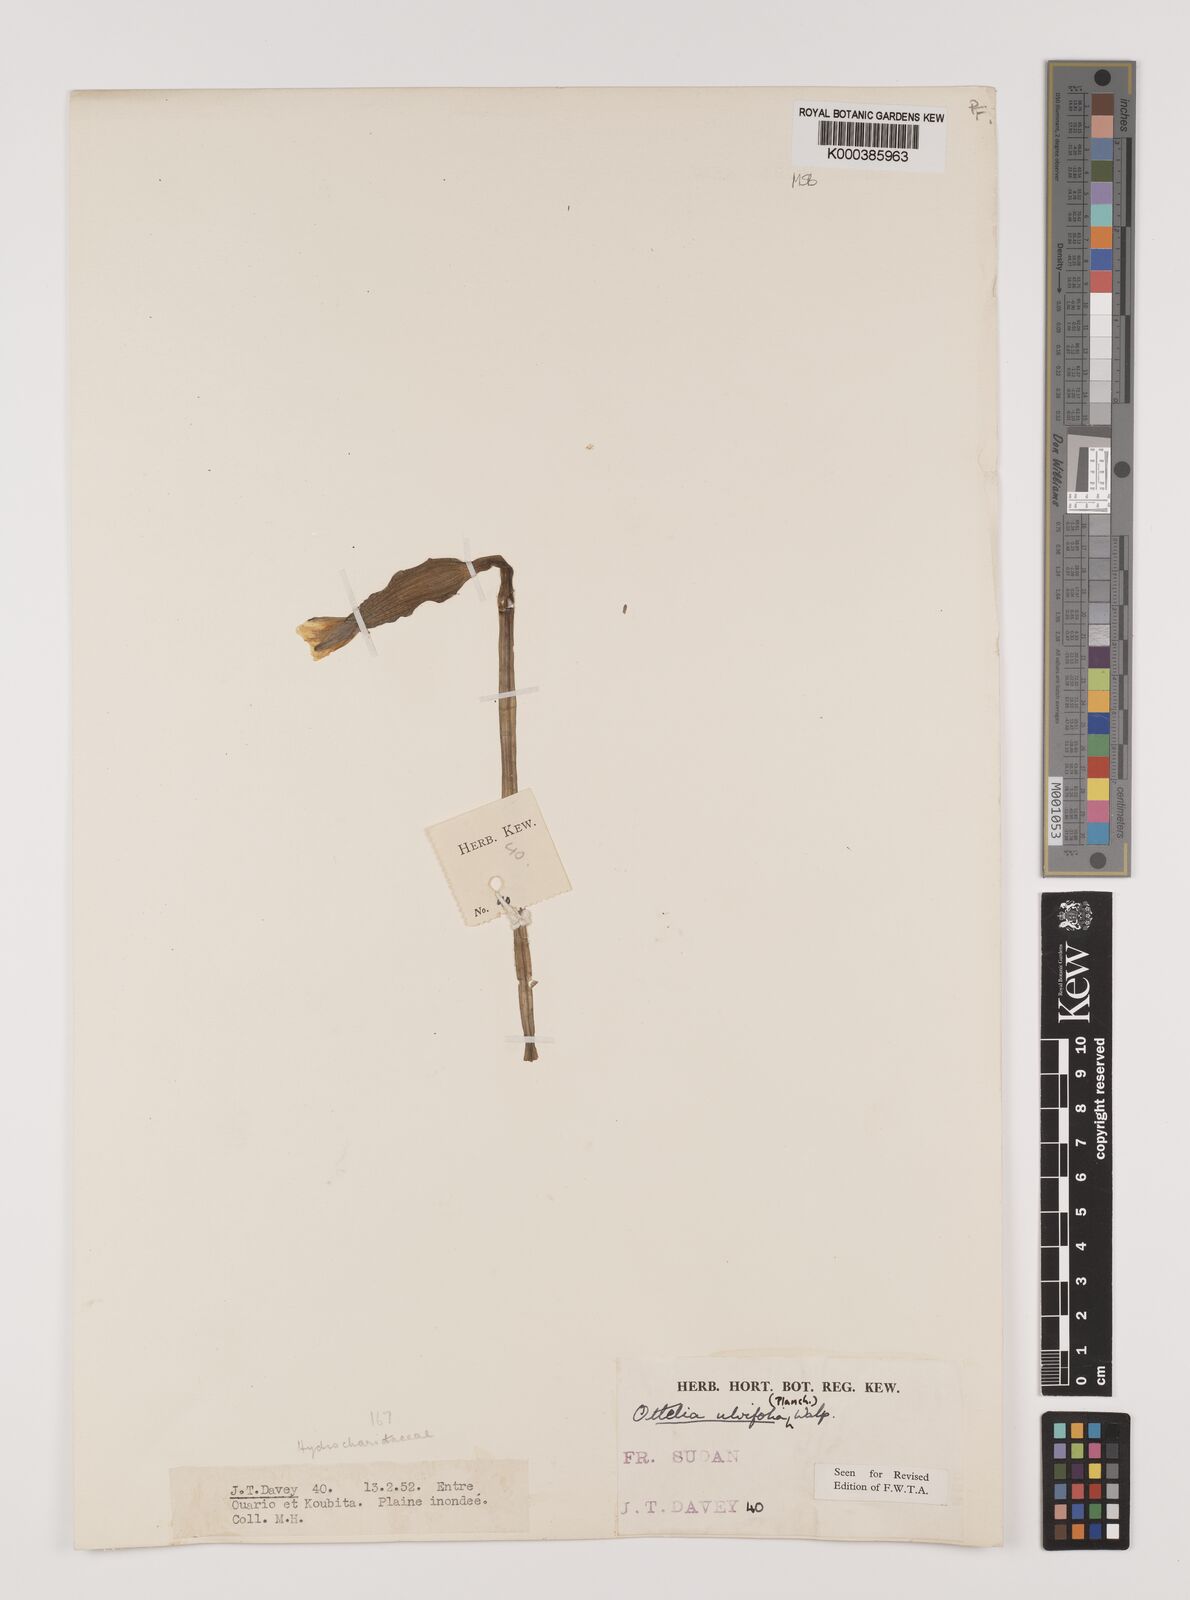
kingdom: Plantae
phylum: Tracheophyta
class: Liliopsida
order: Alismatales
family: Hydrocharitaceae
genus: Ottelia
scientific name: Ottelia ulvifolia
